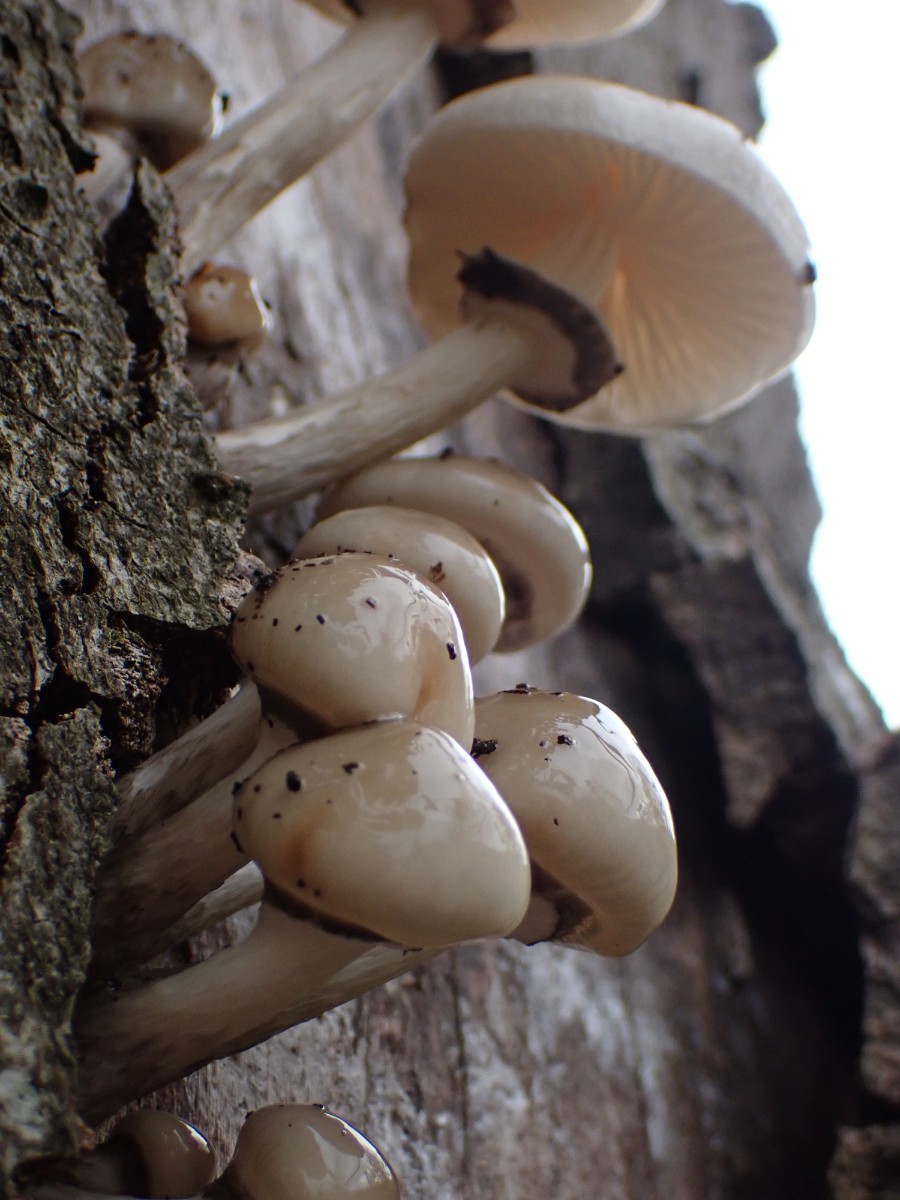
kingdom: Fungi
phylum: Basidiomycota
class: Agaricomycetes
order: Agaricales
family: Physalacriaceae
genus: Mucidula
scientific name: Mucidula mucida
